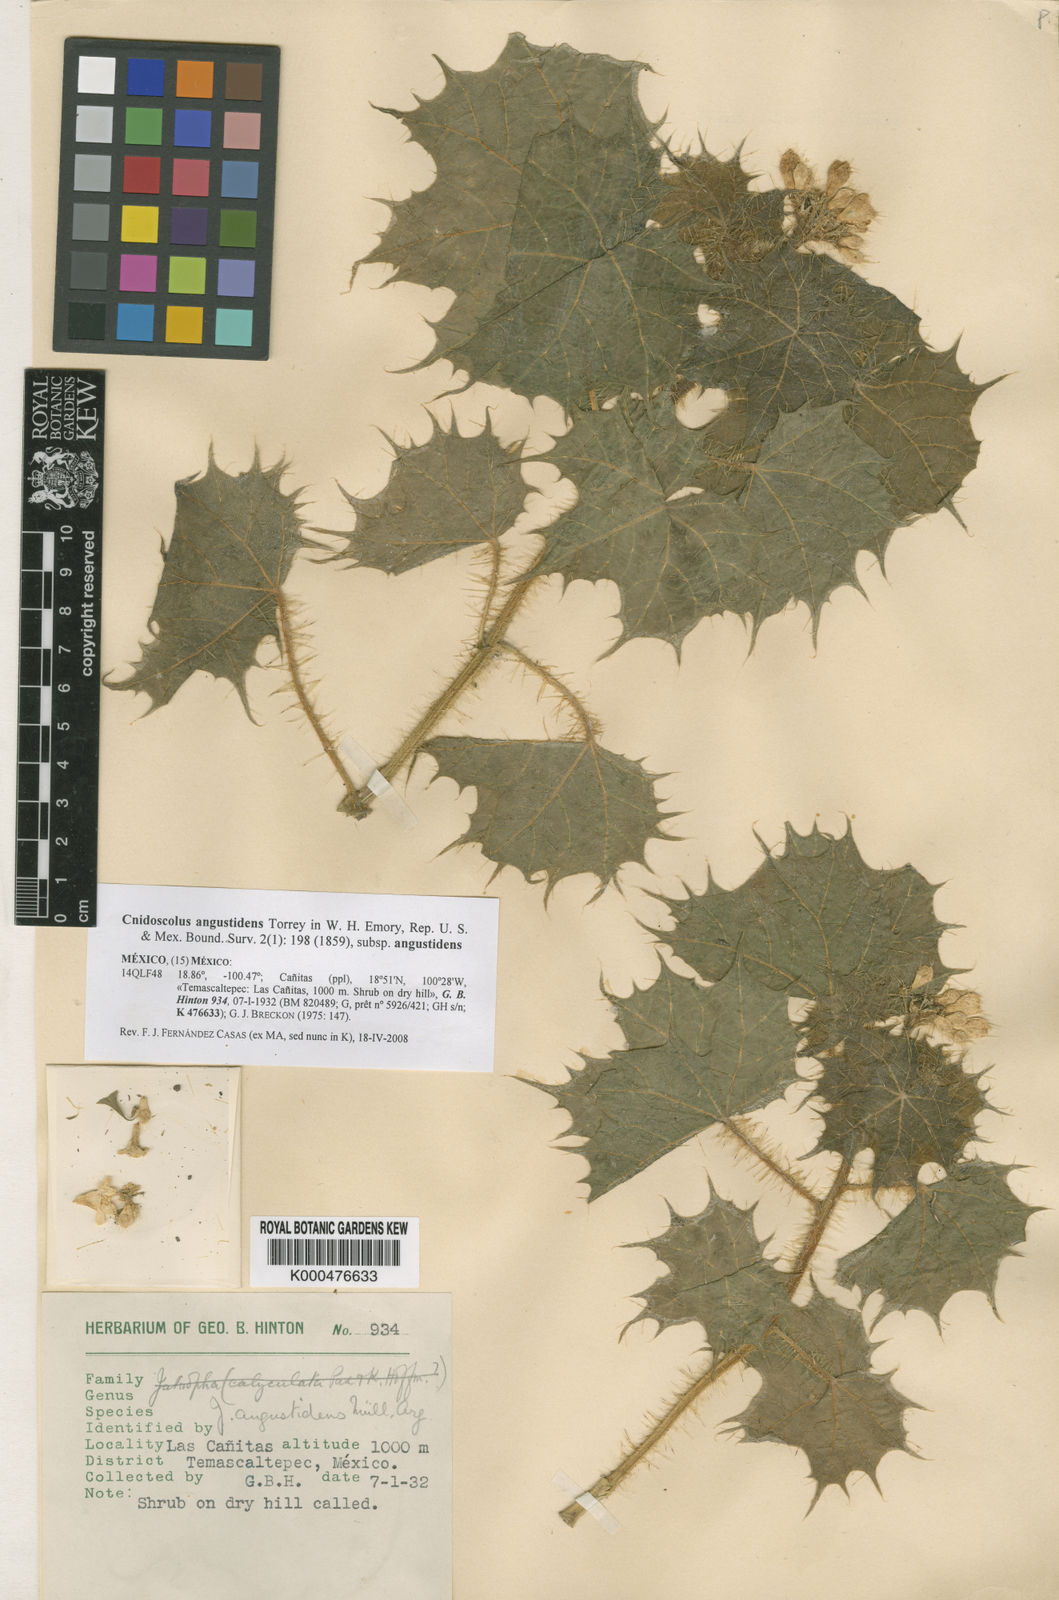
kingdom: Plantae
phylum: Tracheophyta
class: Magnoliopsida
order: Malpighiales
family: Euphorbiaceae
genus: Cnidoscolus
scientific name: Cnidoscolus angustidens
